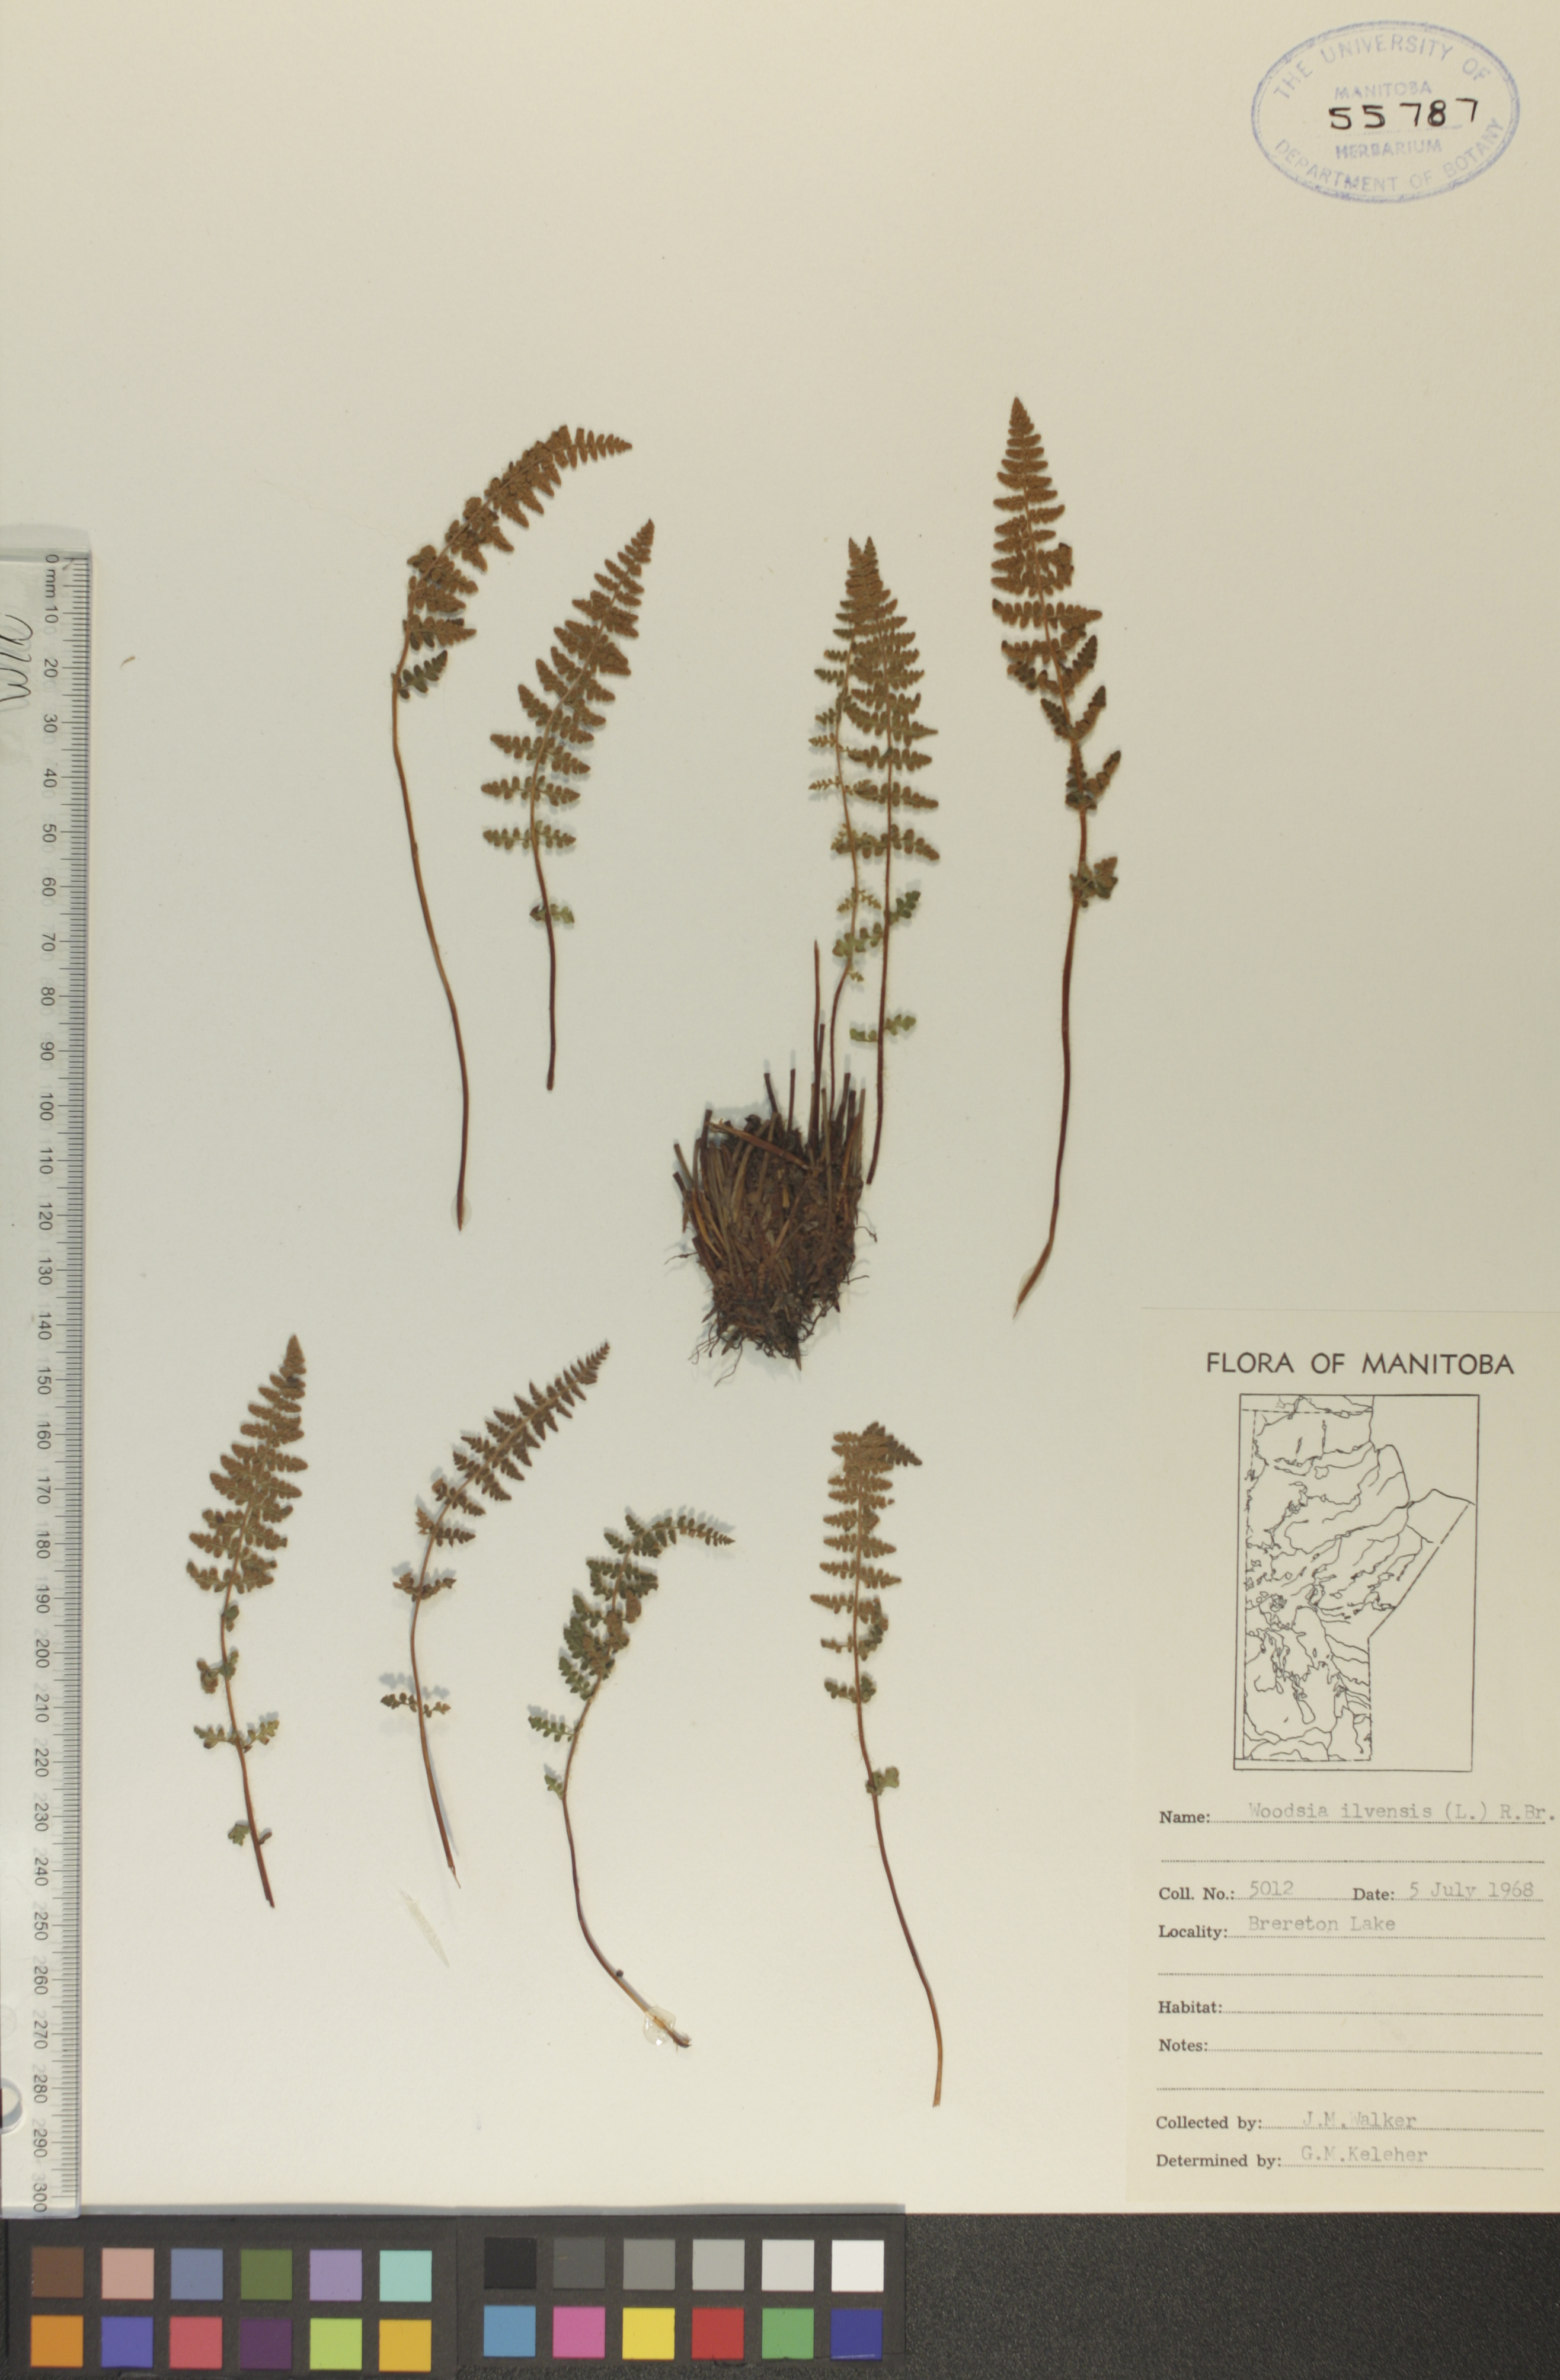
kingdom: Plantae
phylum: Tracheophyta
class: Polypodiopsida
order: Polypodiales
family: Woodsiaceae
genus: Woodsia
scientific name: Woodsia ilvensis
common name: Fragrant woodsia
